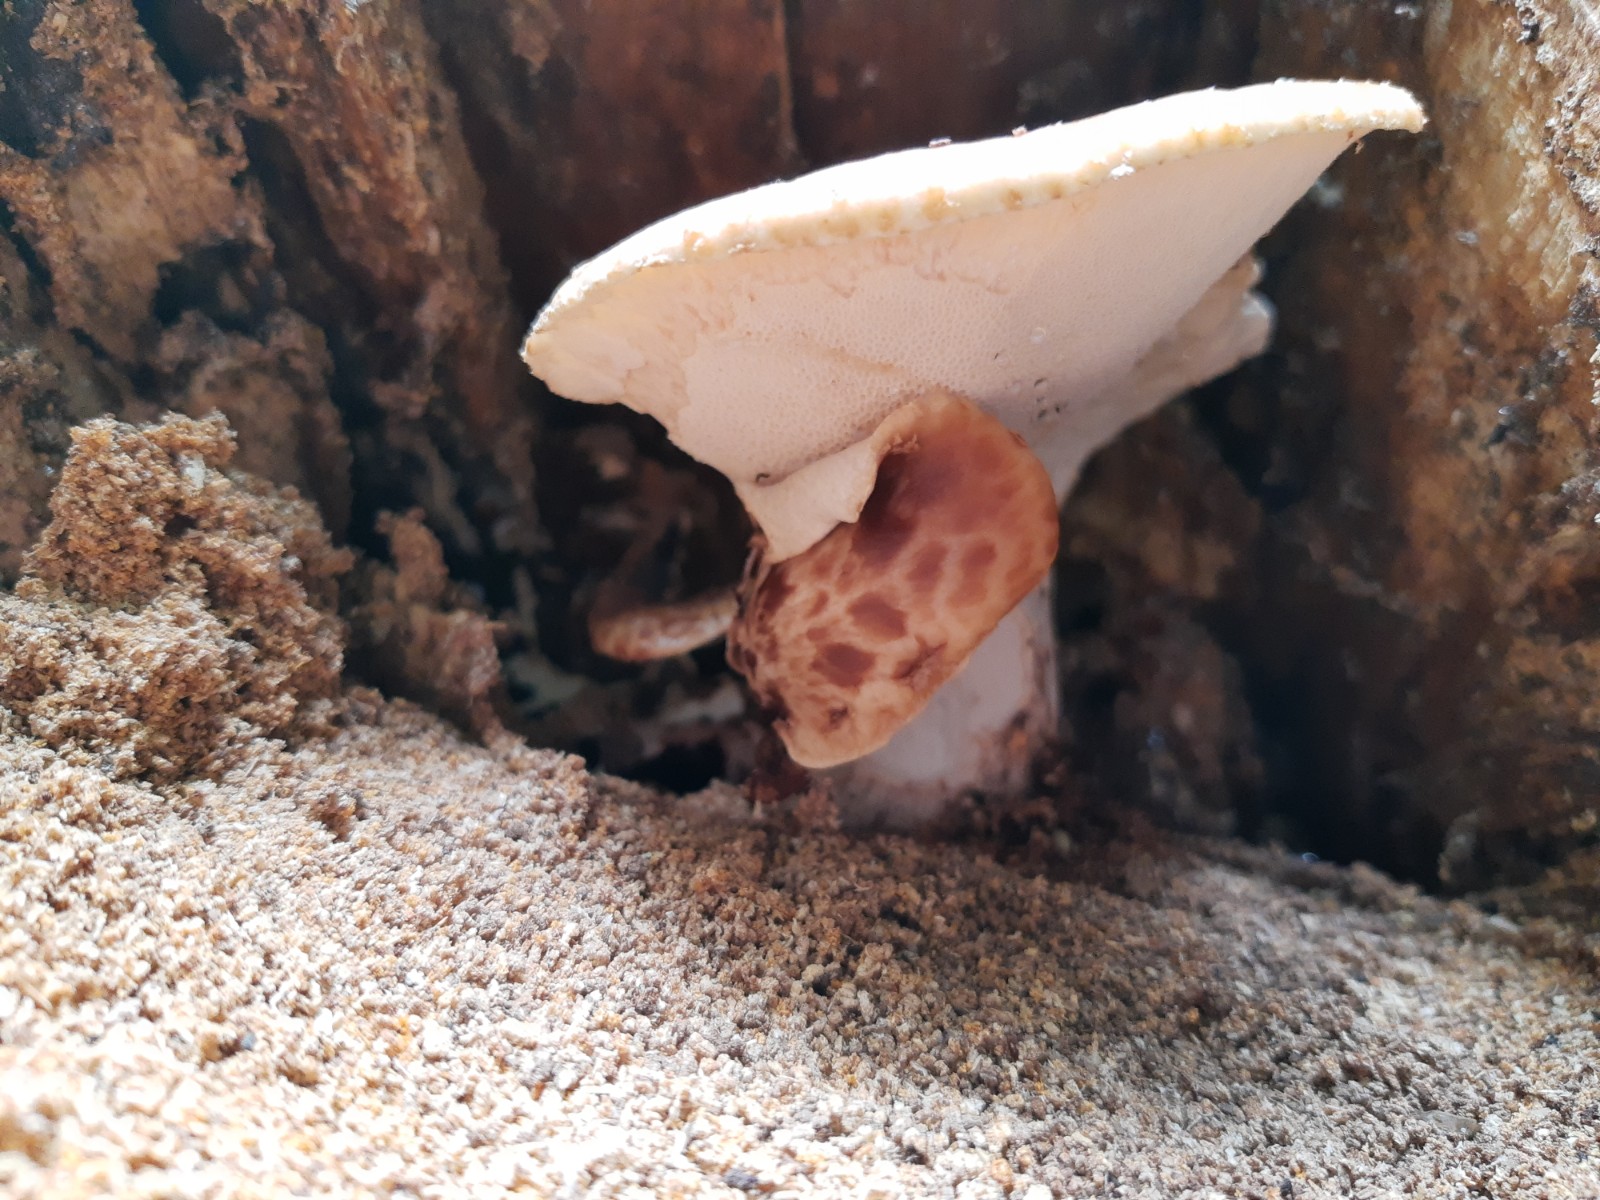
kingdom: Fungi
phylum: Basidiomycota
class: Agaricomycetes
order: Polyporales
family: Polyporaceae
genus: Cerioporus
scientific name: Cerioporus squamosus
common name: skællet stilkporesvamp
